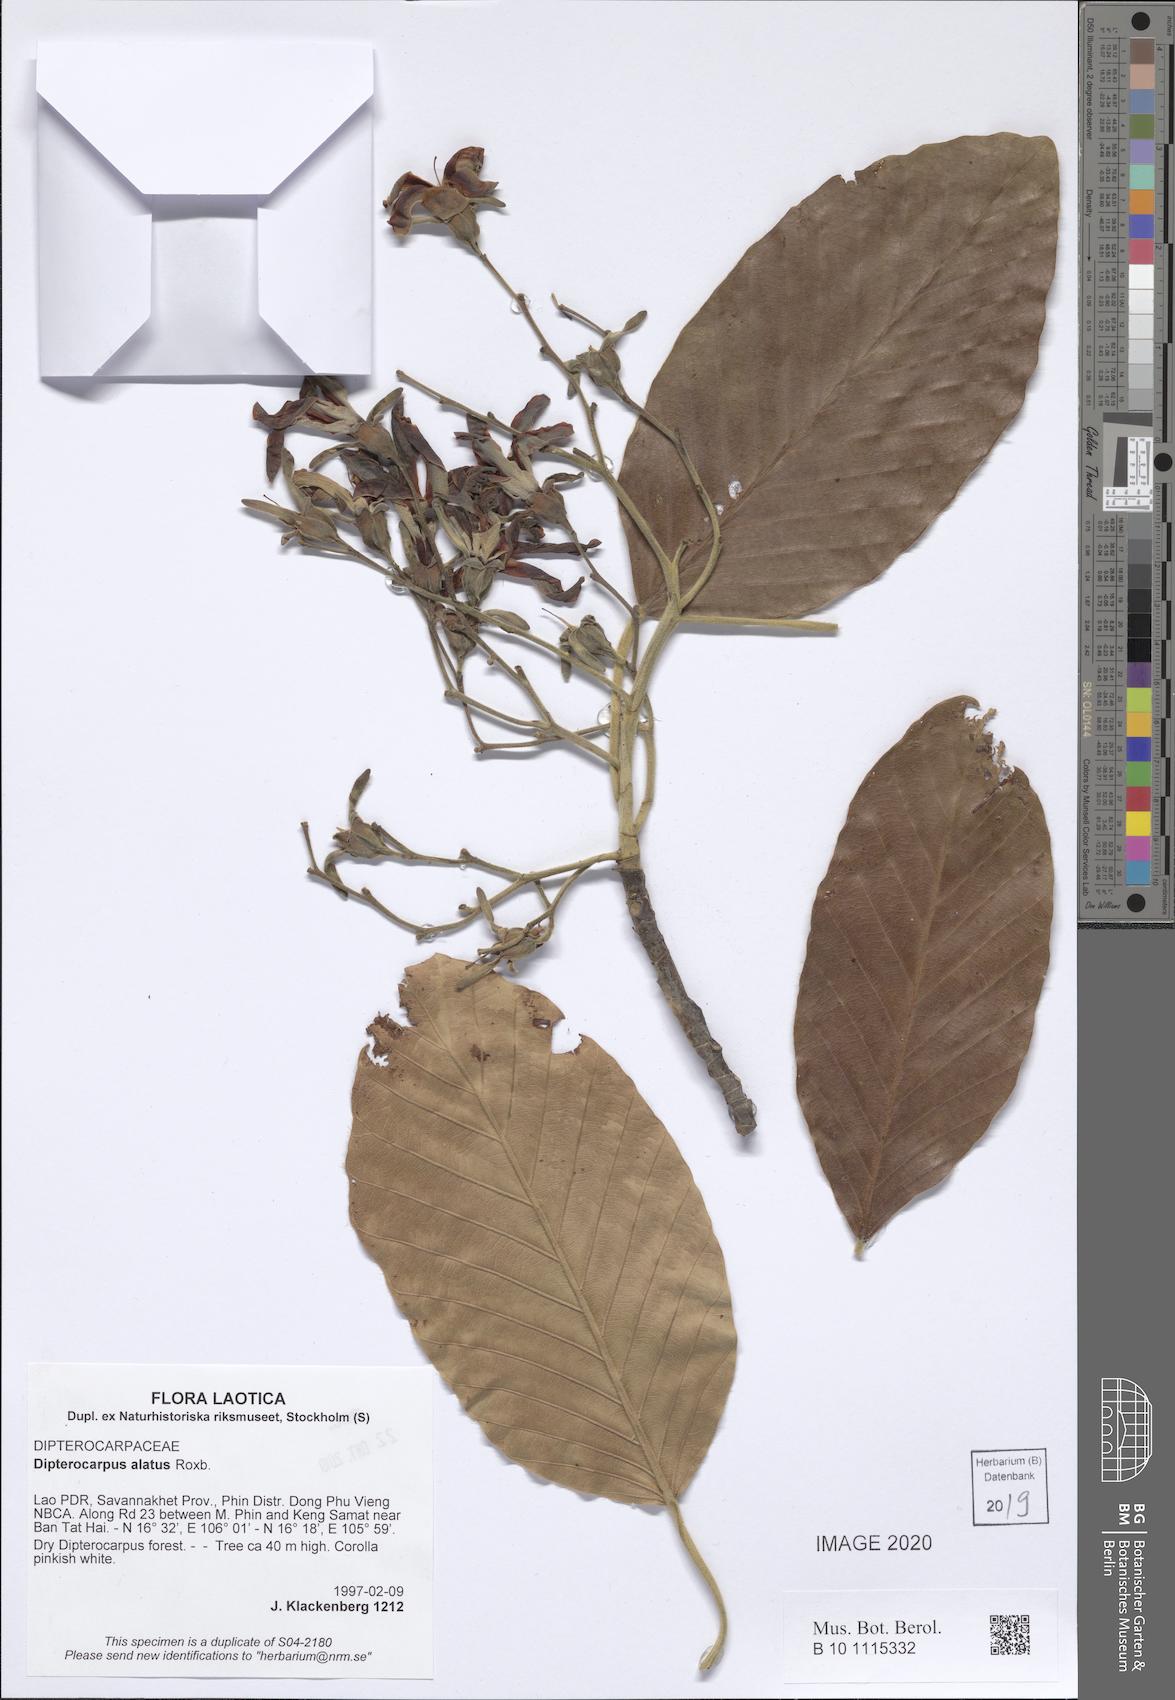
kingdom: Plantae
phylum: Tracheophyta
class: Magnoliopsida
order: Malvales
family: Dipterocarpaceae
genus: Dipterocarpus
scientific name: Dipterocarpus alatus
